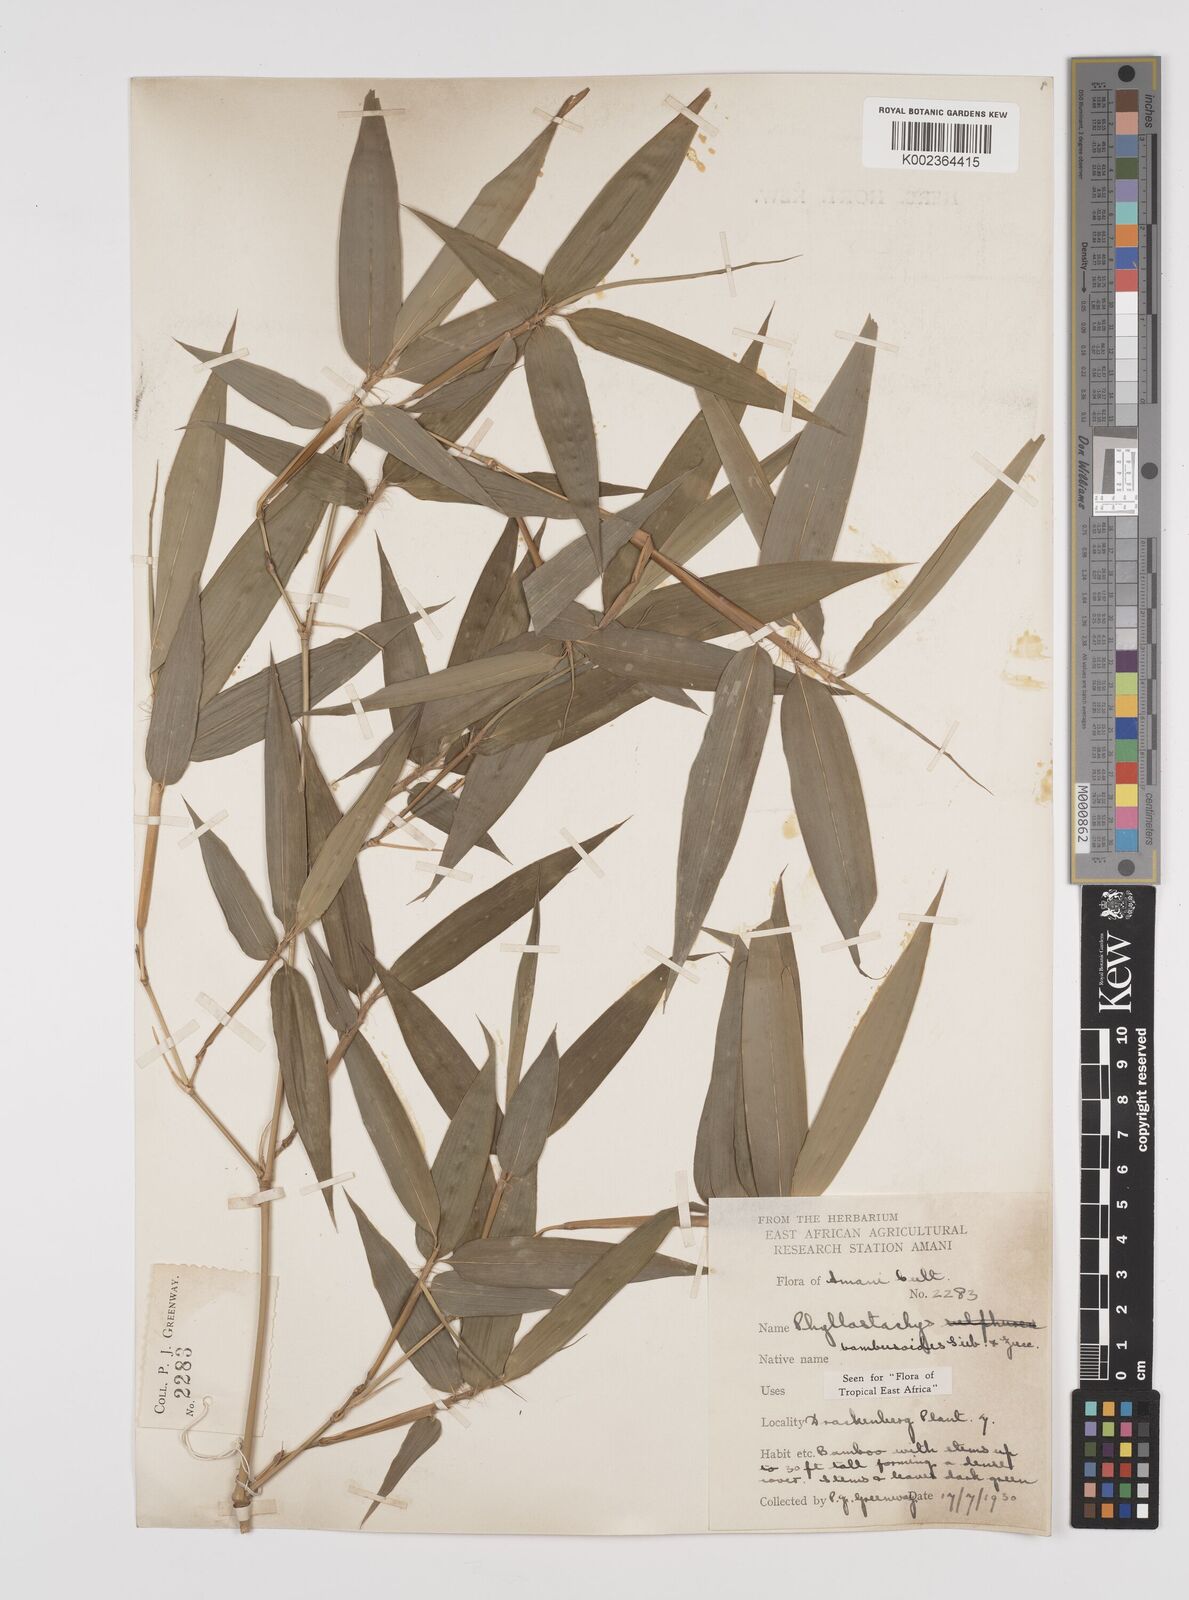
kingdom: Plantae
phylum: Tracheophyta
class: Liliopsida
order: Poales
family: Poaceae
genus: Phyllostachys
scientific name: Phyllostachys reticulata
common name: Bamboo
